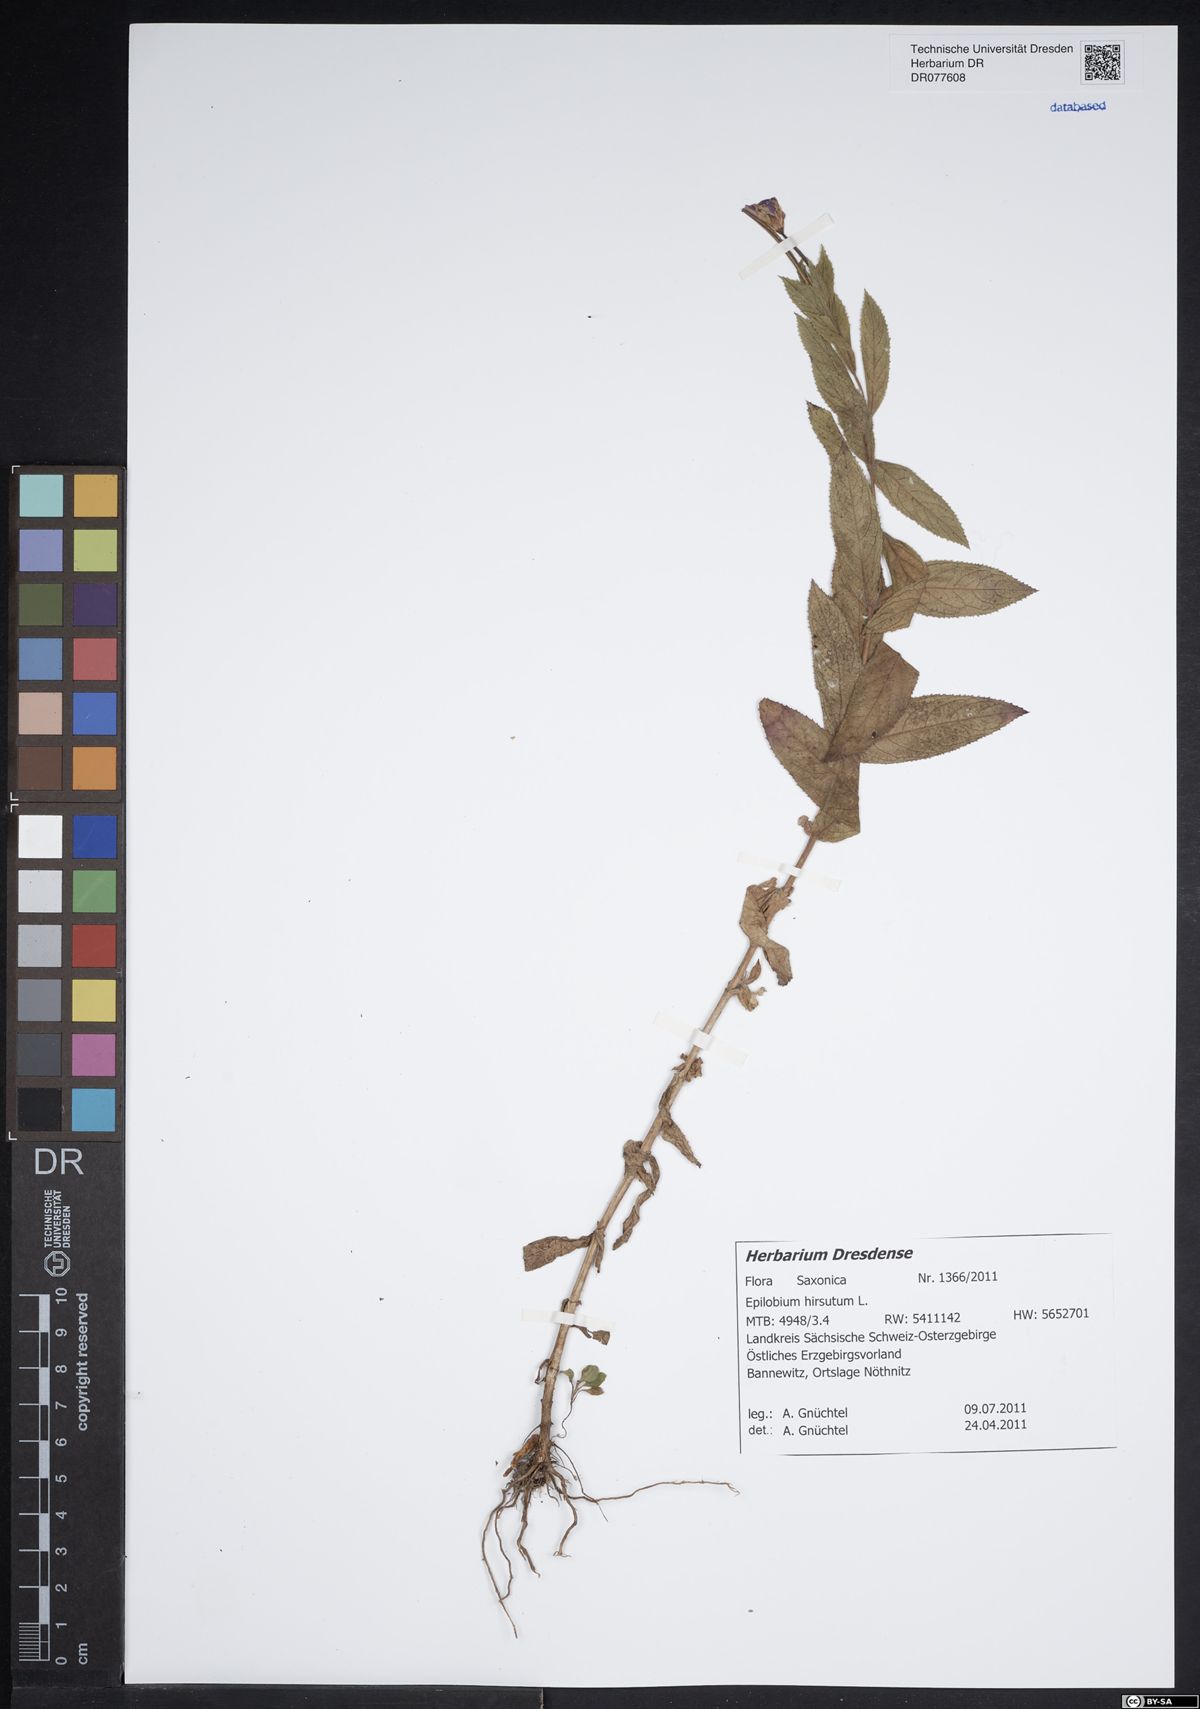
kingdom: Plantae
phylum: Tracheophyta
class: Magnoliopsida
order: Myrtales
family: Onagraceae
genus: Epilobium
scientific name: Epilobium hirsutum
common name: Great willowherb
